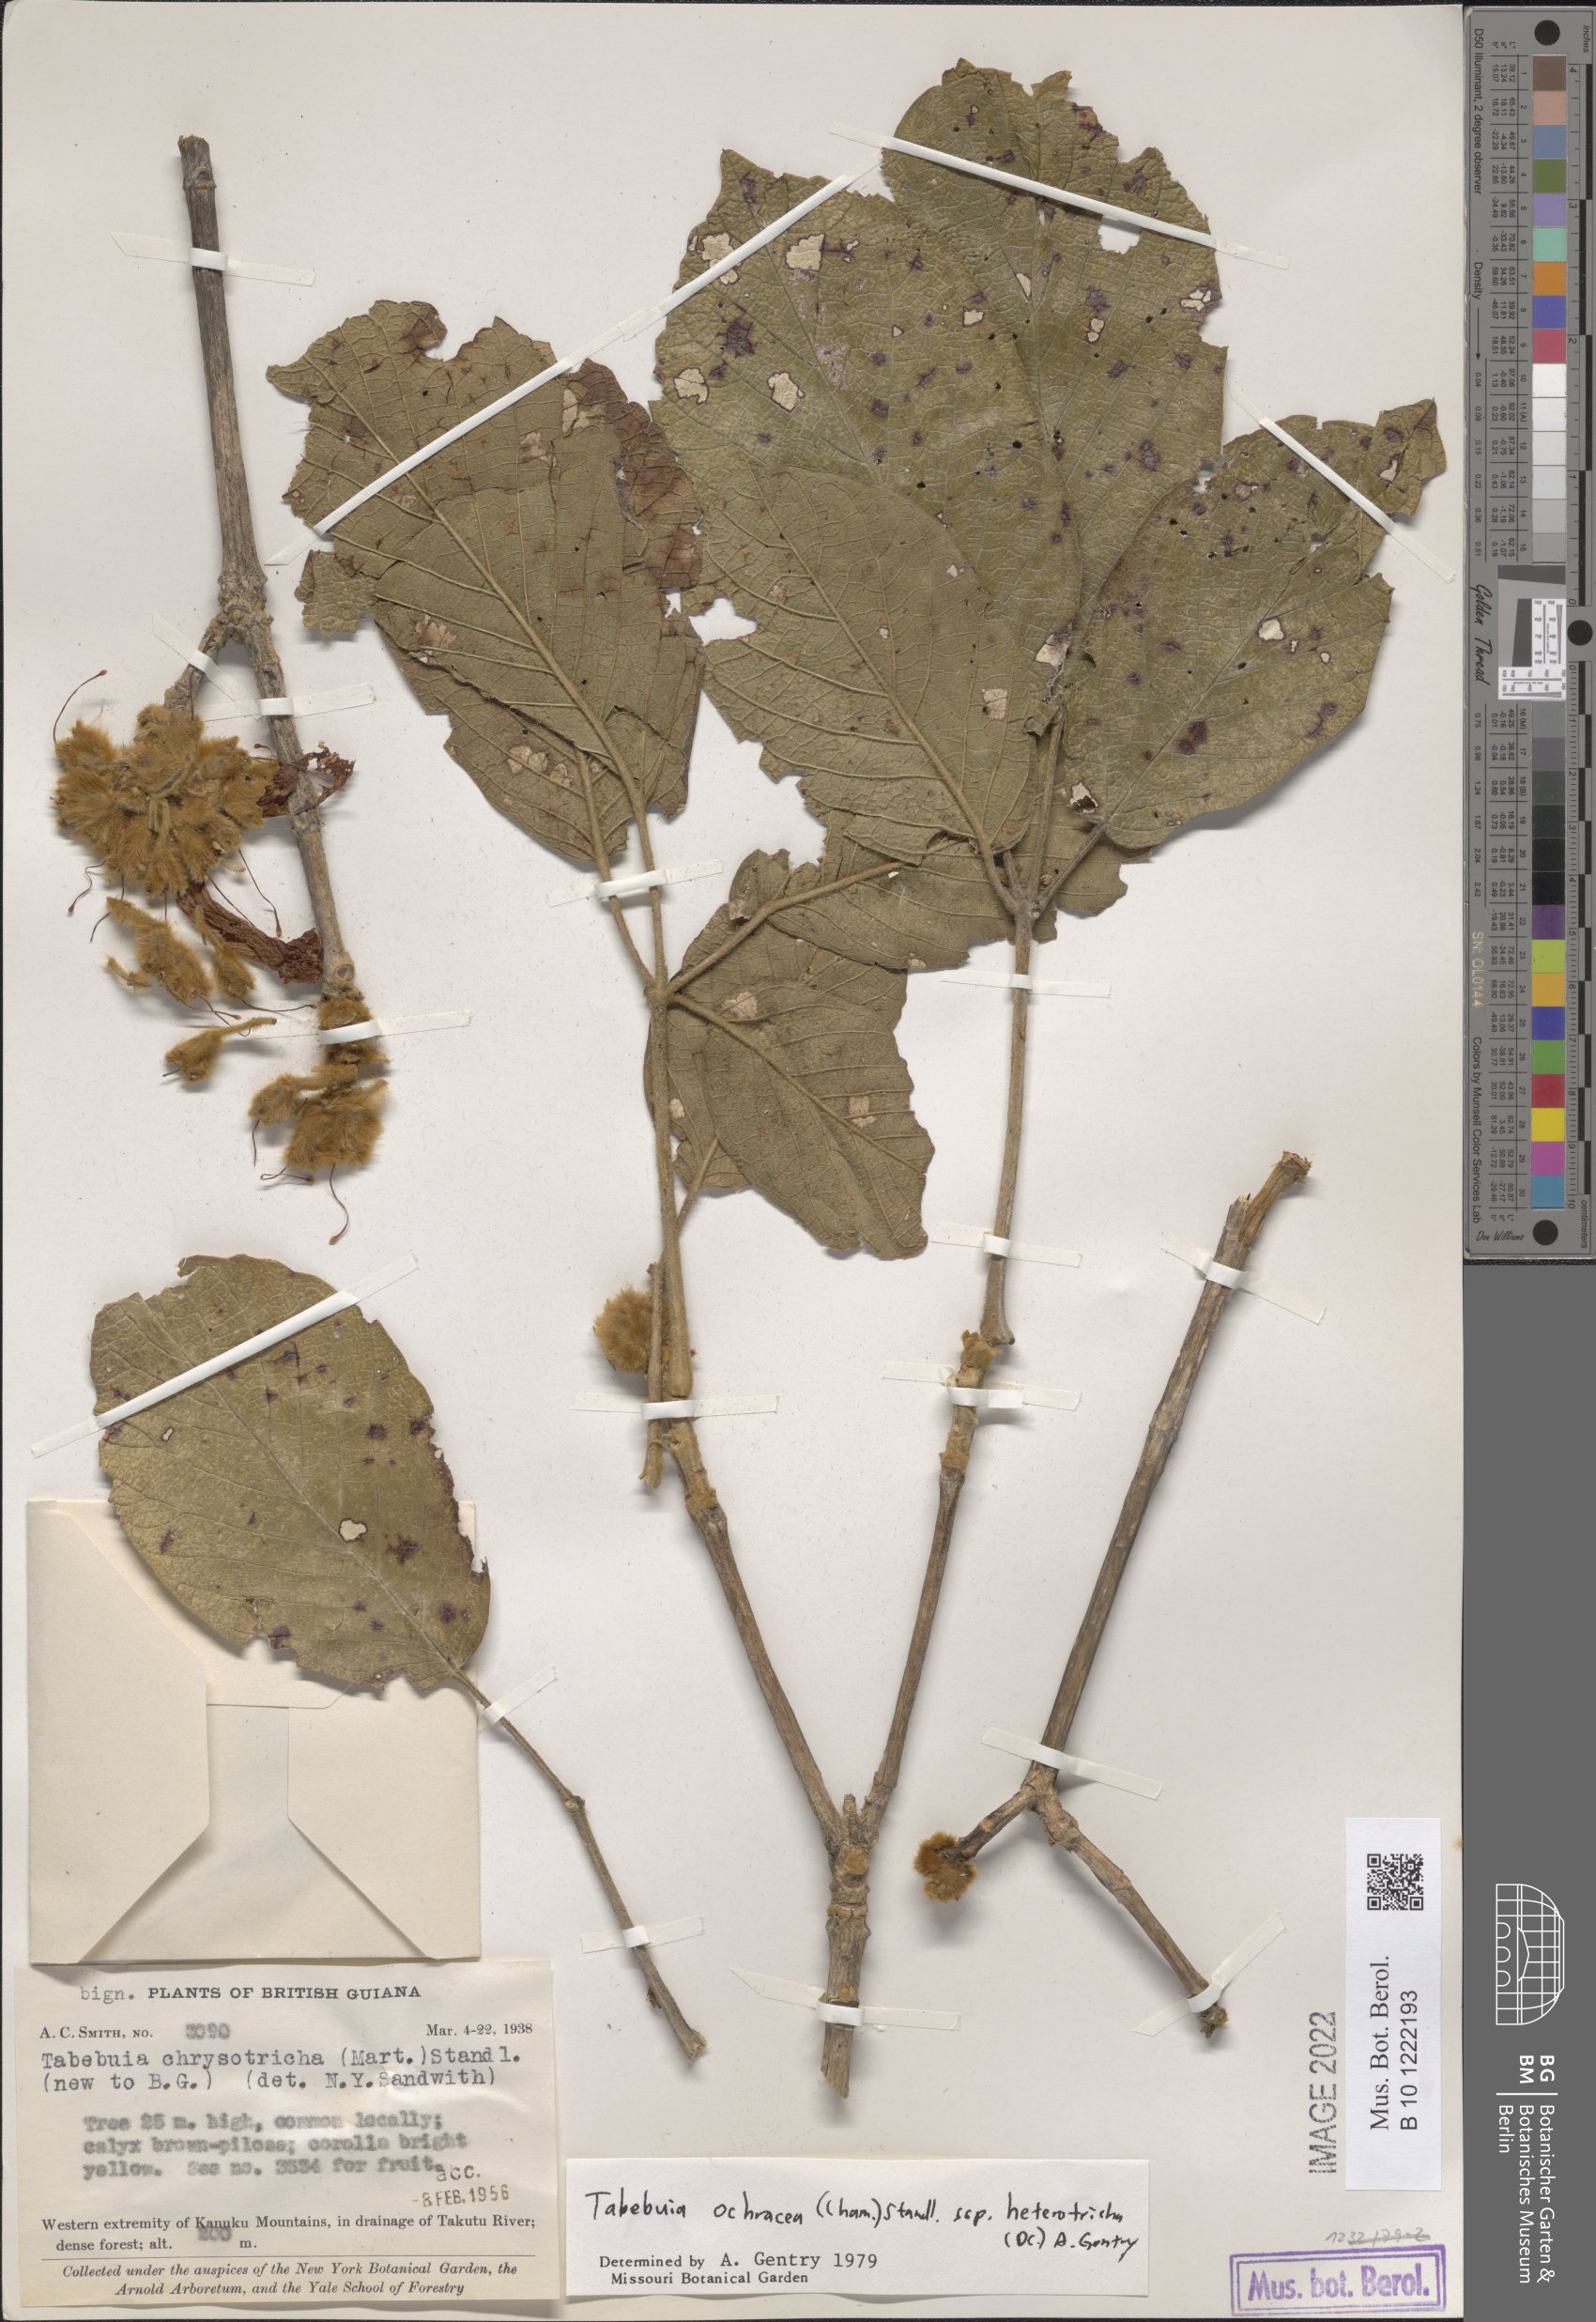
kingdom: Plantae
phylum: Tracheophyta
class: Magnoliopsida
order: Lamiales
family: Bignoniaceae
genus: Handroanthus
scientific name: Handroanthus ochraceus
